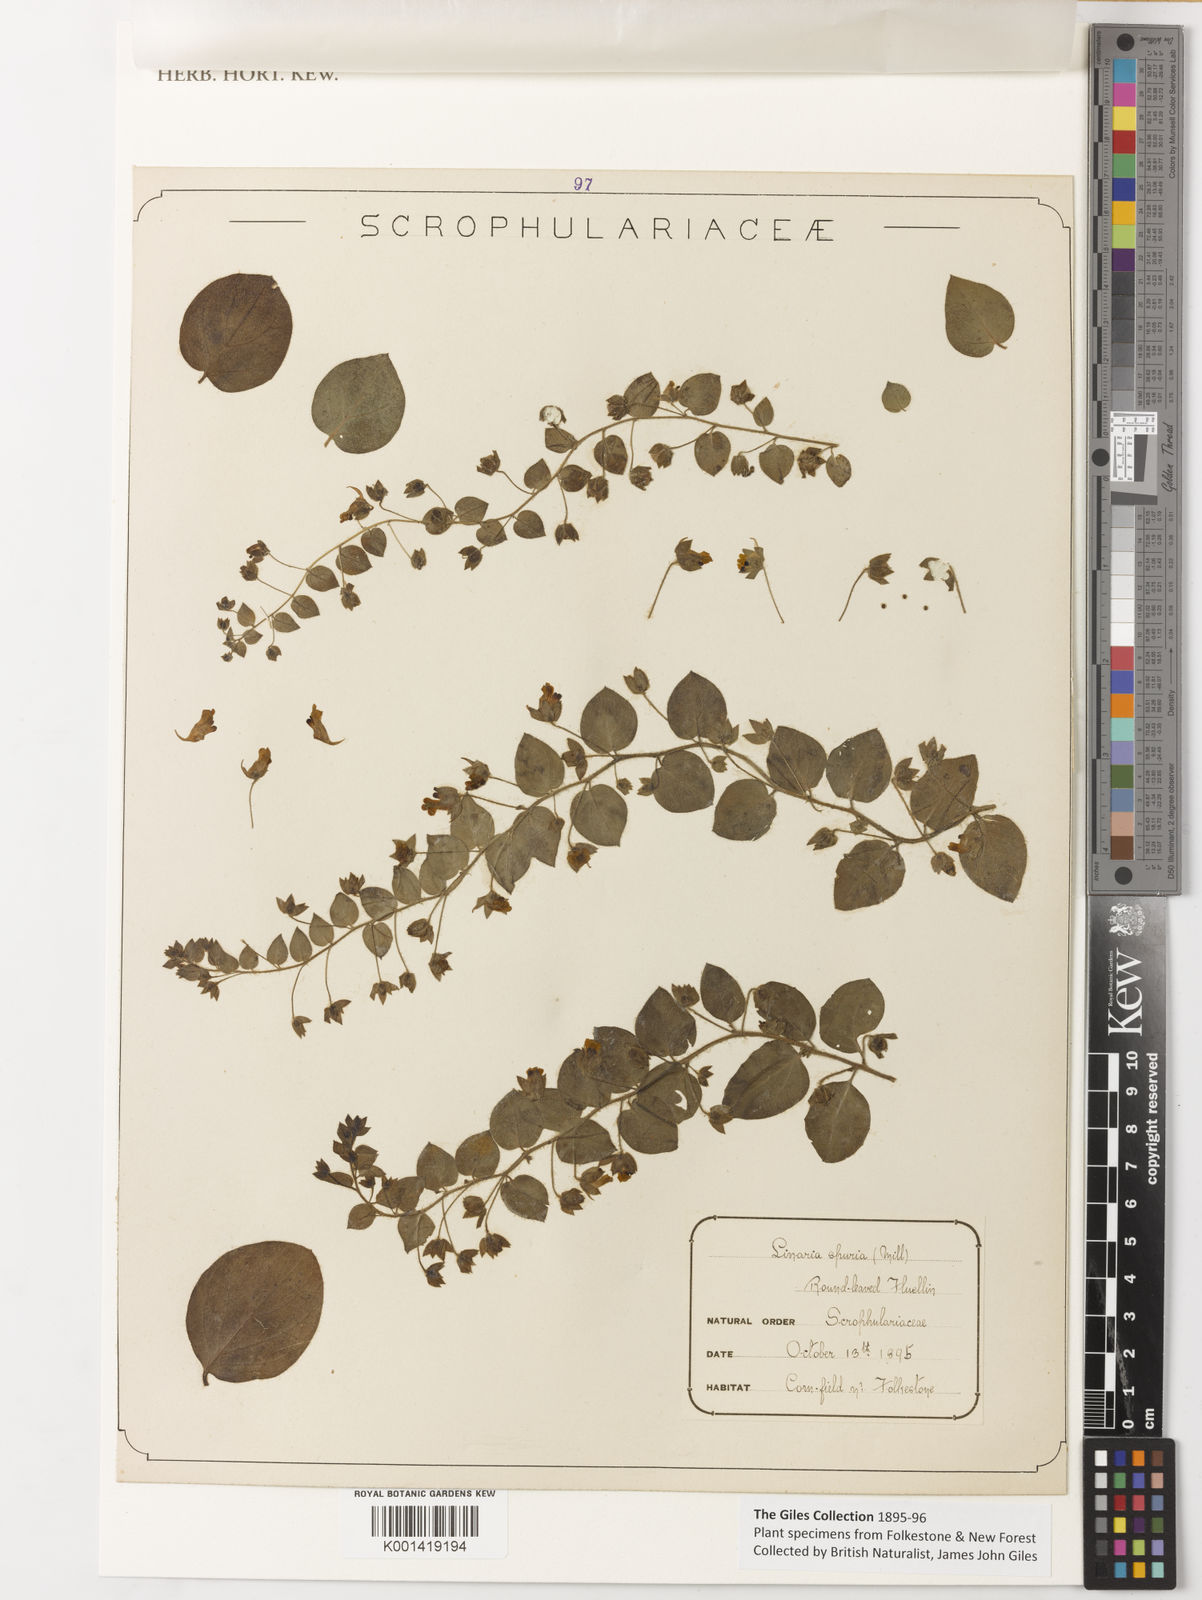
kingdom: Plantae
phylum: Tracheophyta
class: Magnoliopsida
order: Lamiales
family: Plantaginaceae
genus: Kickxia
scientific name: Kickxia spuria
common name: Round-leaved fluellen
